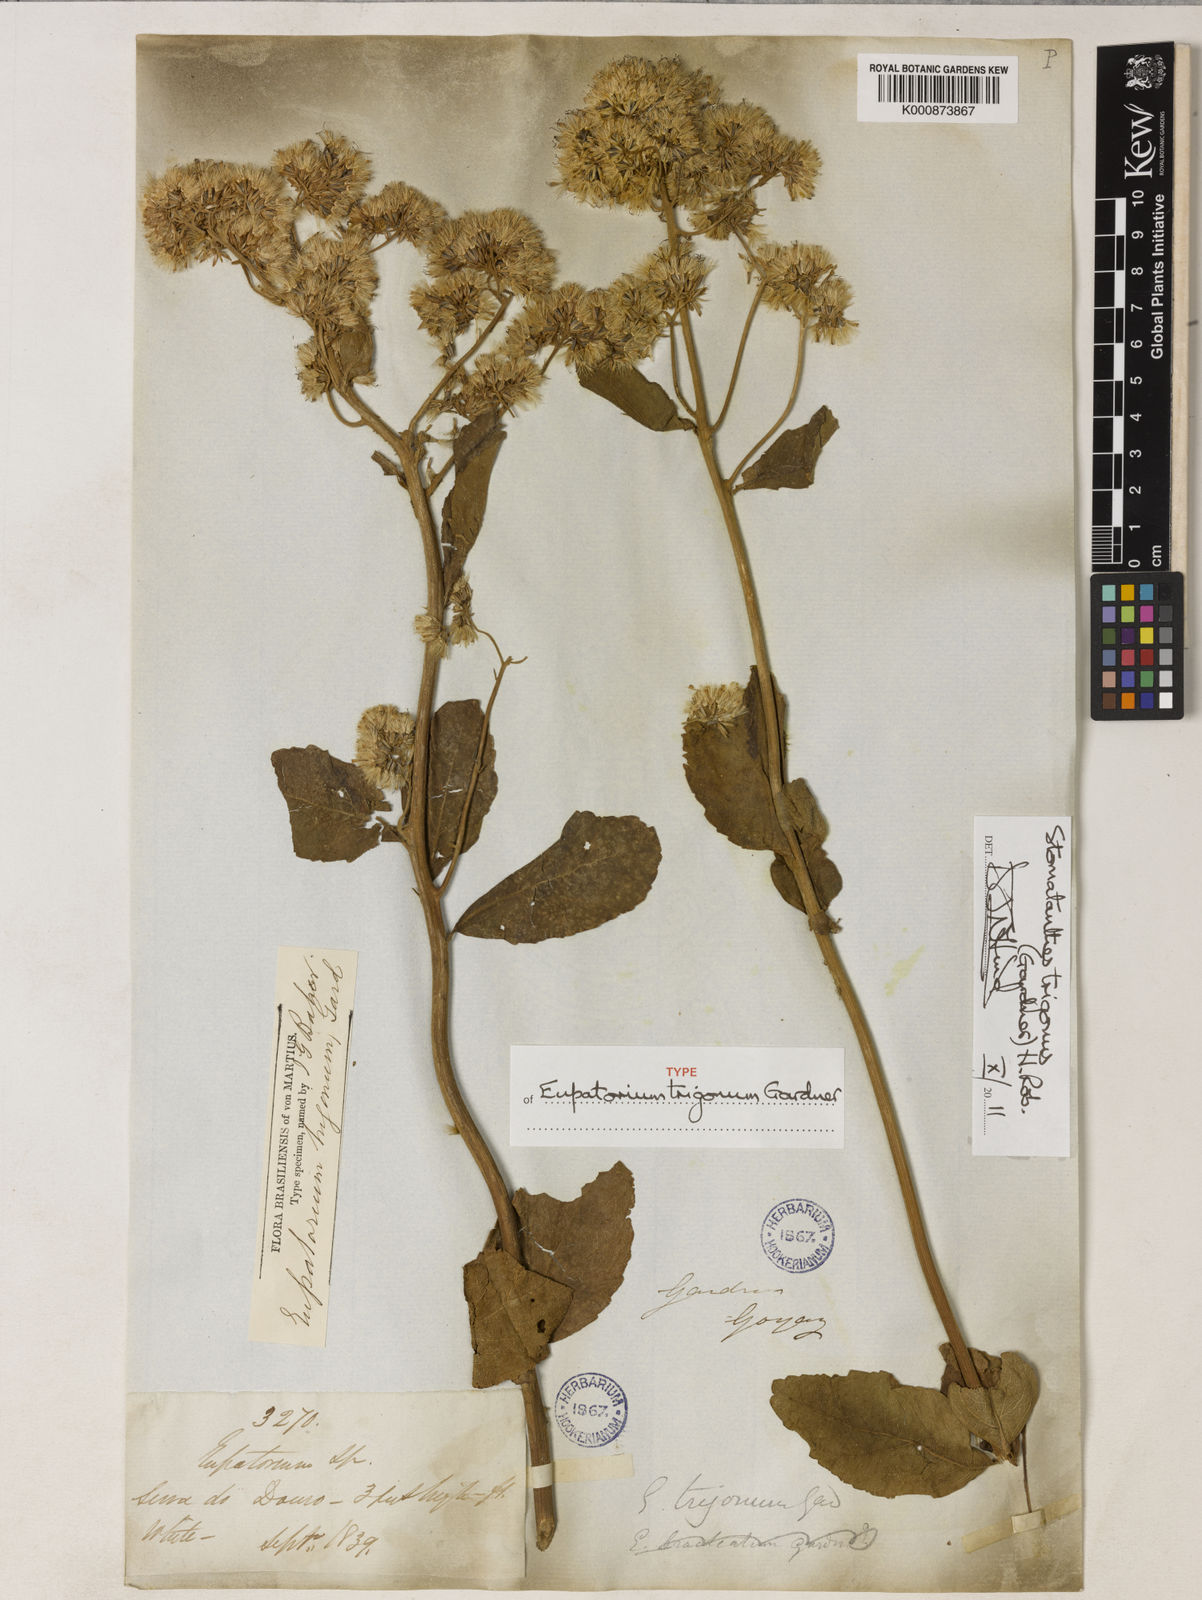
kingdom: Plantae
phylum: Tracheophyta
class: Magnoliopsida
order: Asterales
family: Asteraceae
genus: Stomatanthes
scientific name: Stomatanthes trigonus
